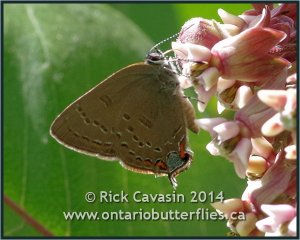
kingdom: Animalia
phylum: Arthropoda
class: Insecta
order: Lepidoptera
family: Lycaenidae
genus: Satyrium
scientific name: Satyrium edwardsii
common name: Edwards' Hairstreak
